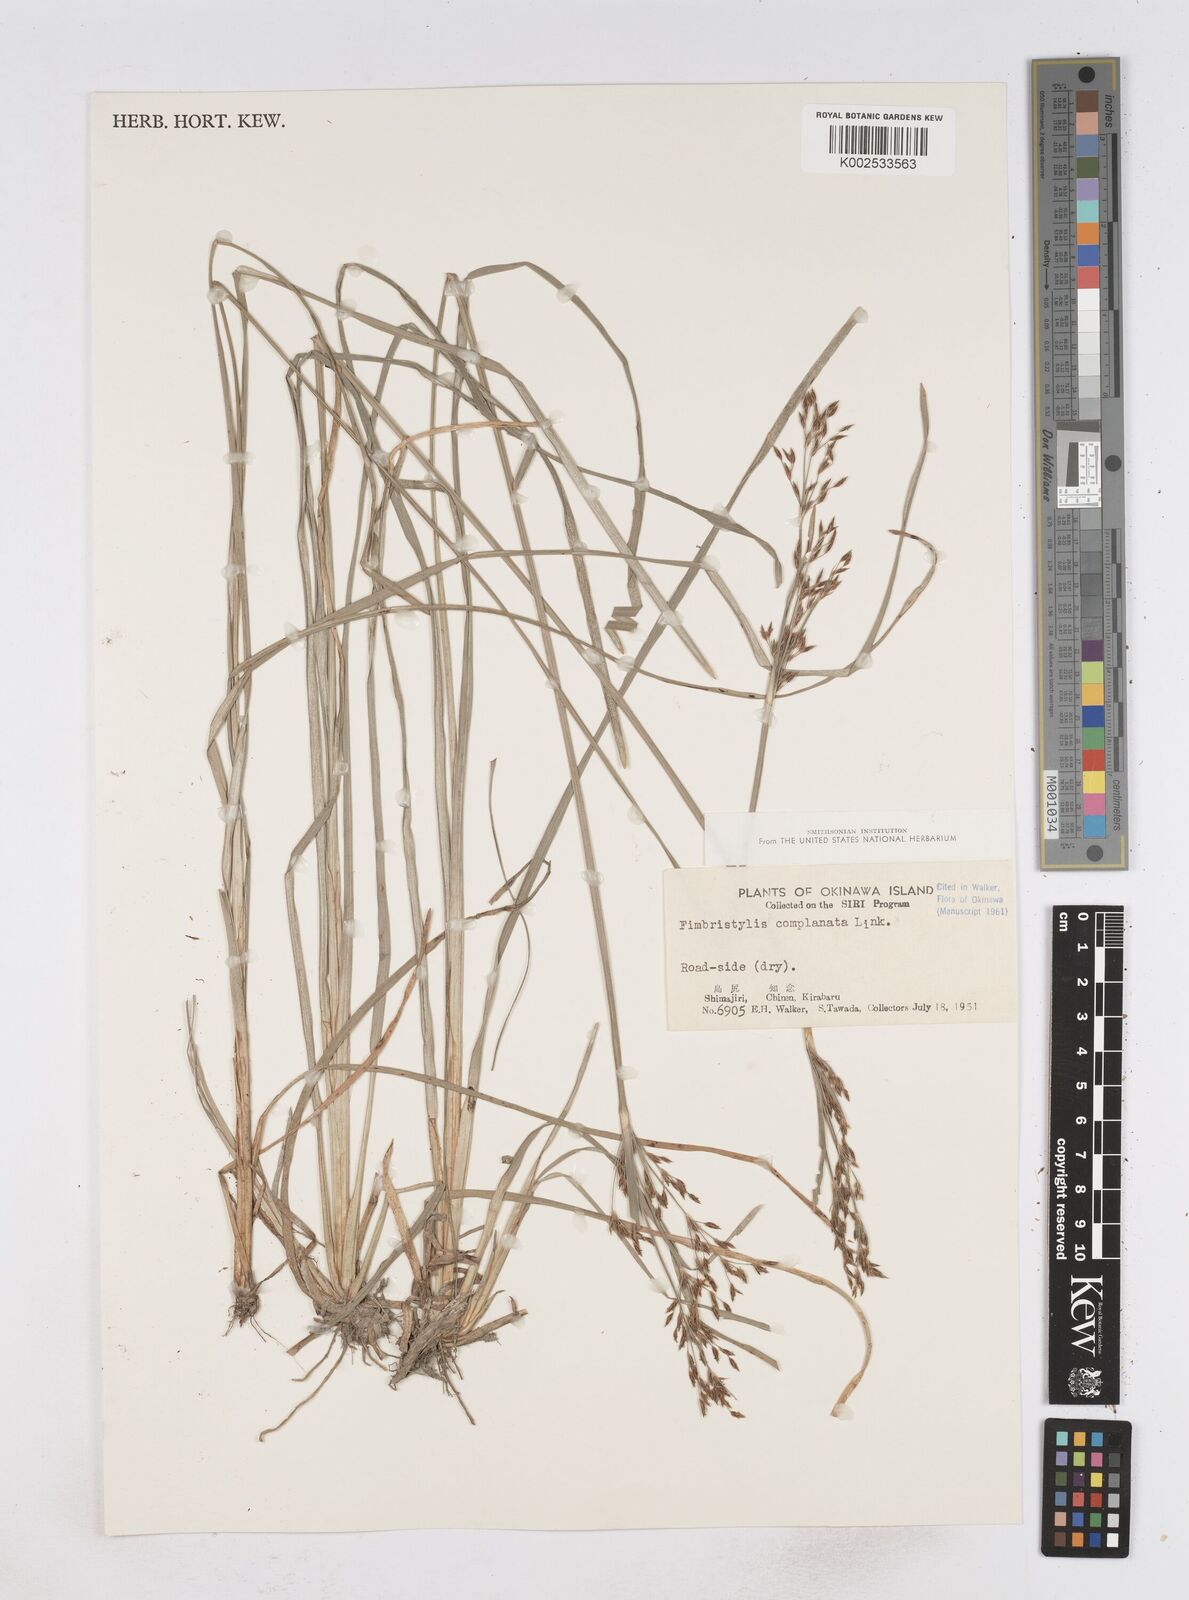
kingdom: Plantae
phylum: Tracheophyta
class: Liliopsida
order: Poales
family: Cyperaceae
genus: Fimbristylis
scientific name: Fimbristylis complanata
